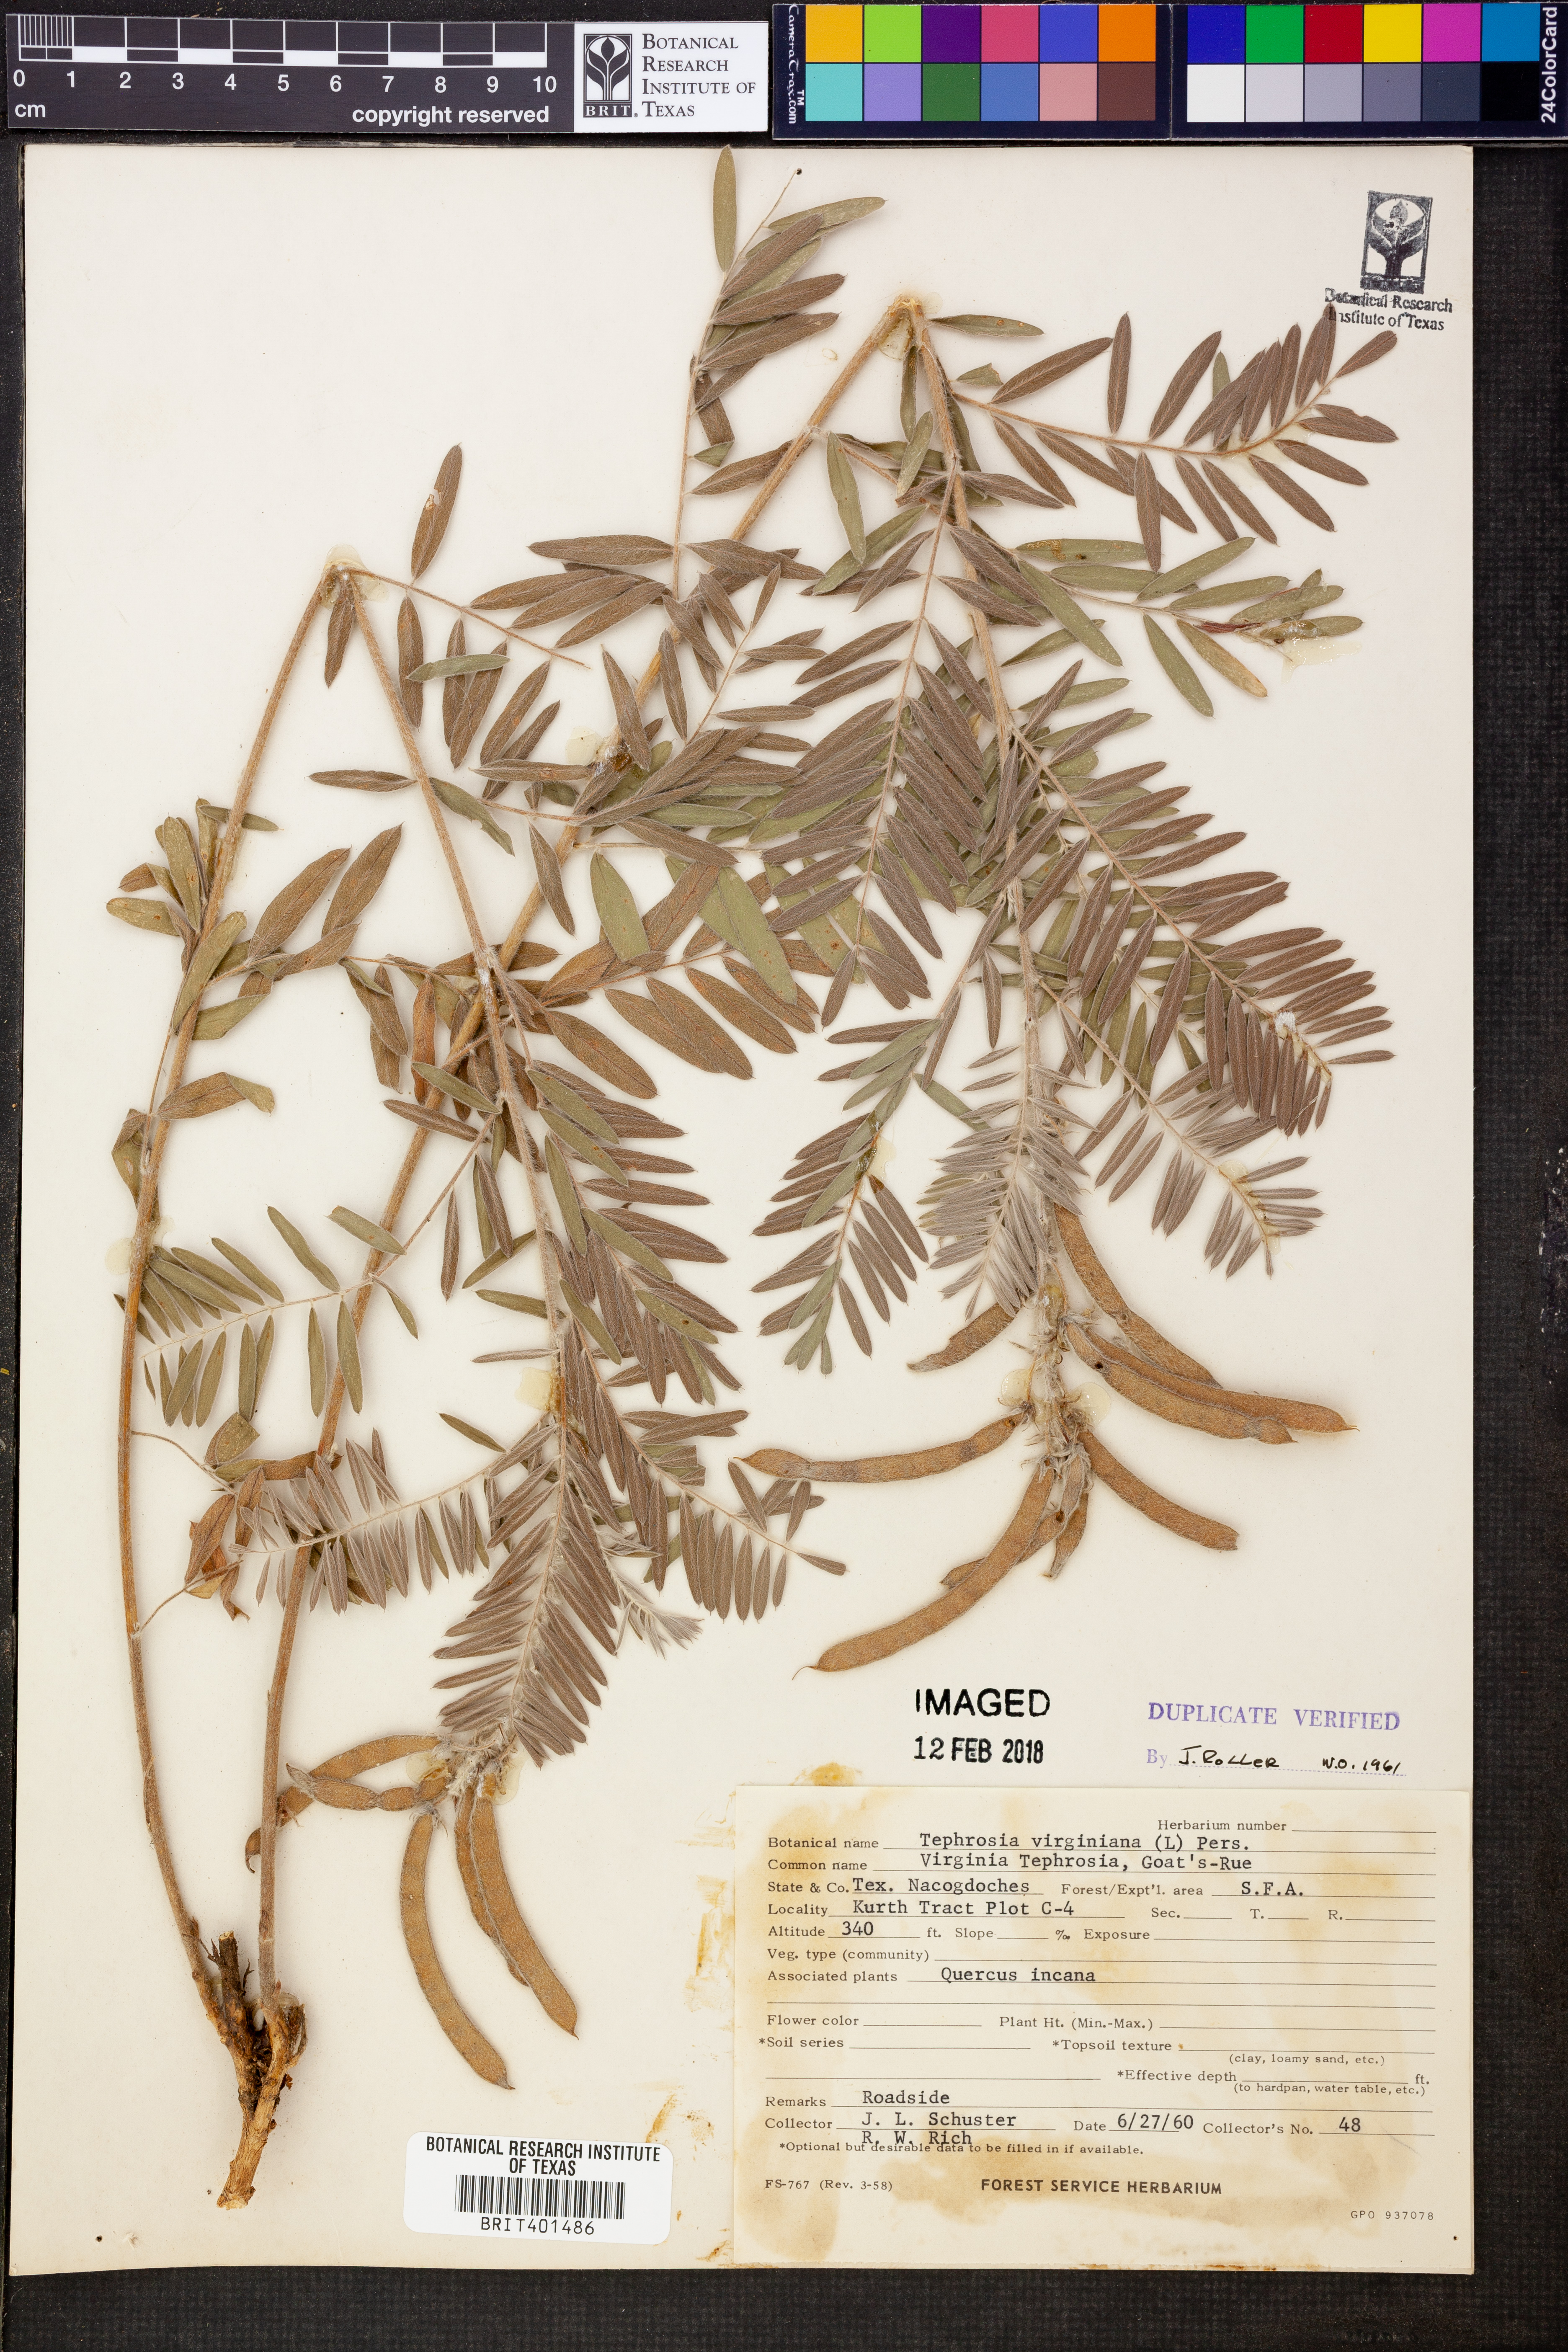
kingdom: Plantae
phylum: Tracheophyta
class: Magnoliopsida
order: Fabales
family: Fabaceae
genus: Tephrosia
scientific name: Tephrosia virginiana
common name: Rabbit-pea
